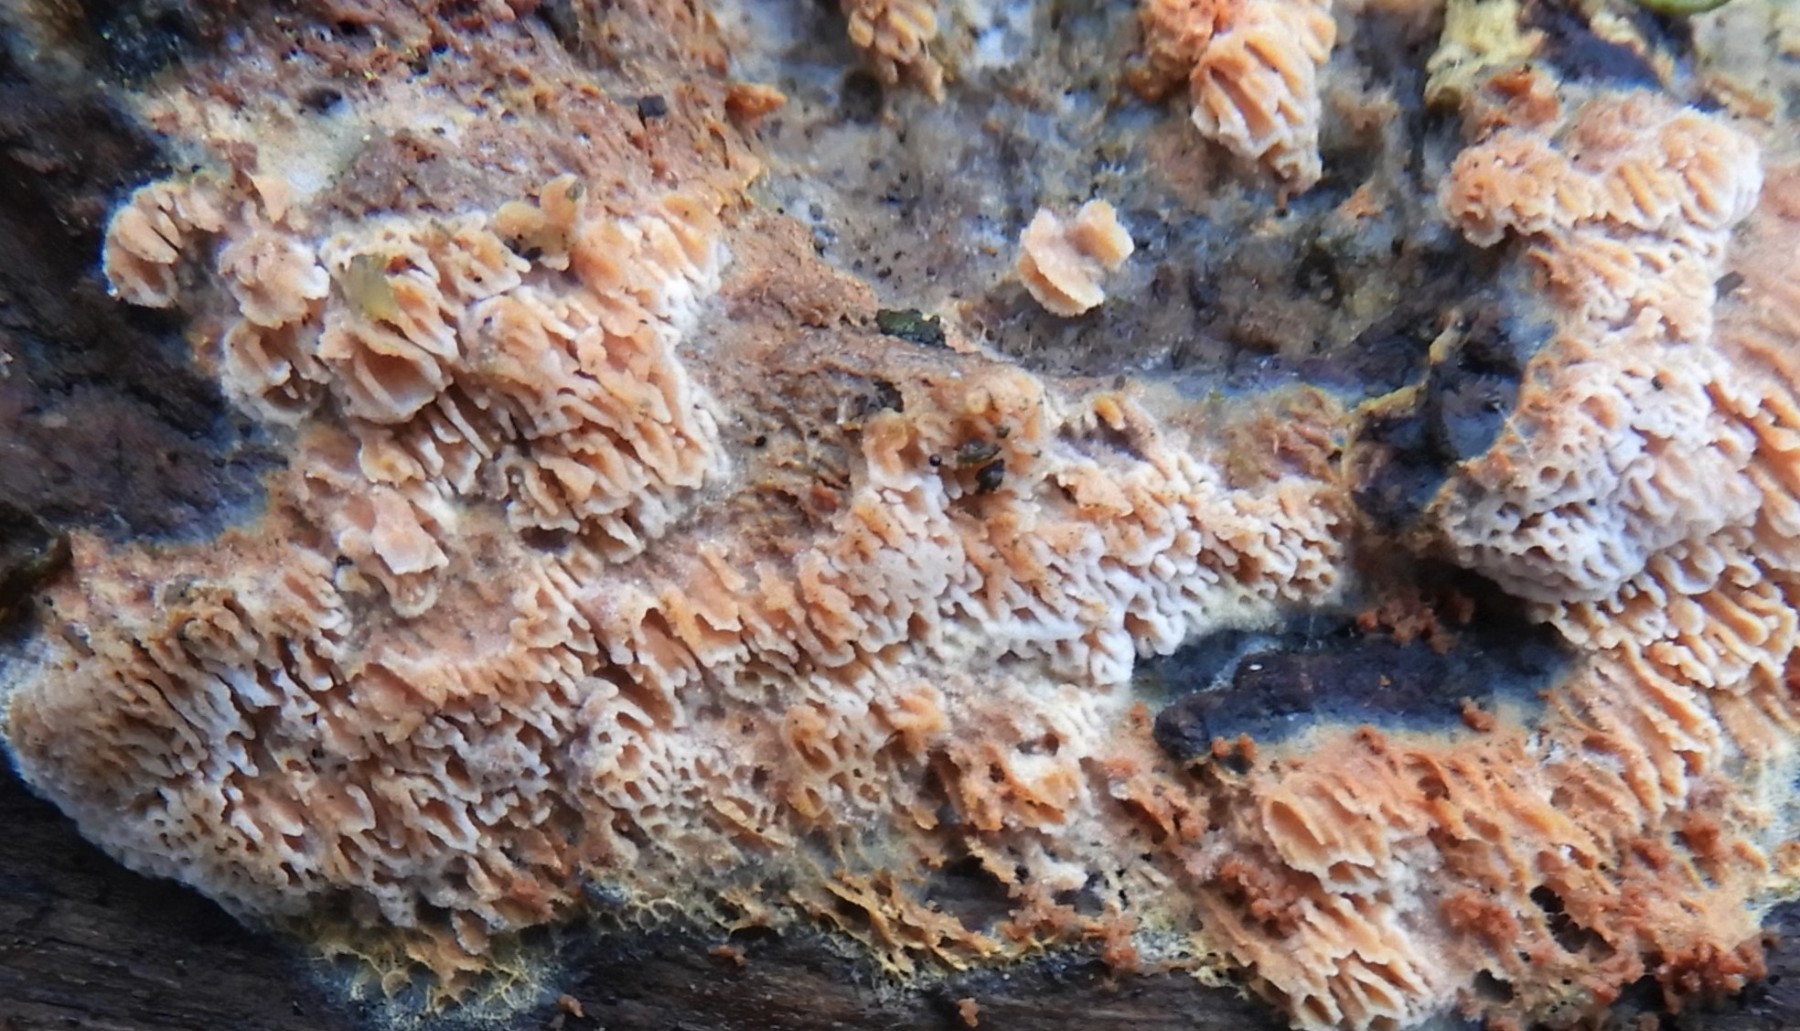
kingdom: Fungi
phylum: Basidiomycota
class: Agaricomycetes
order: Polyporales
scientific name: Polyporales
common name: poresvampordenen
